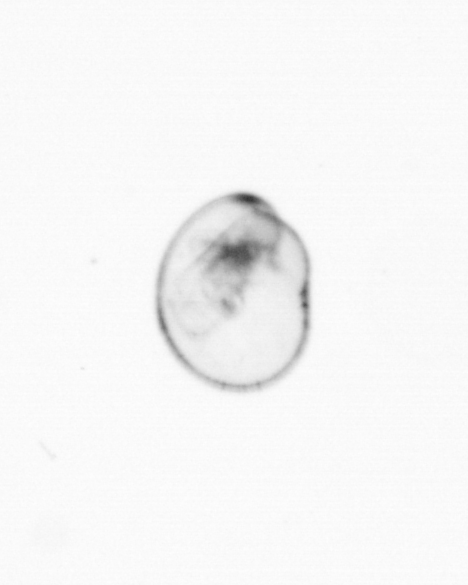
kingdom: Chromista
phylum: Myzozoa
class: Dinophyceae
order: Noctilucales
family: Noctilucaceae
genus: Noctiluca
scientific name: Noctiluca scintillans
